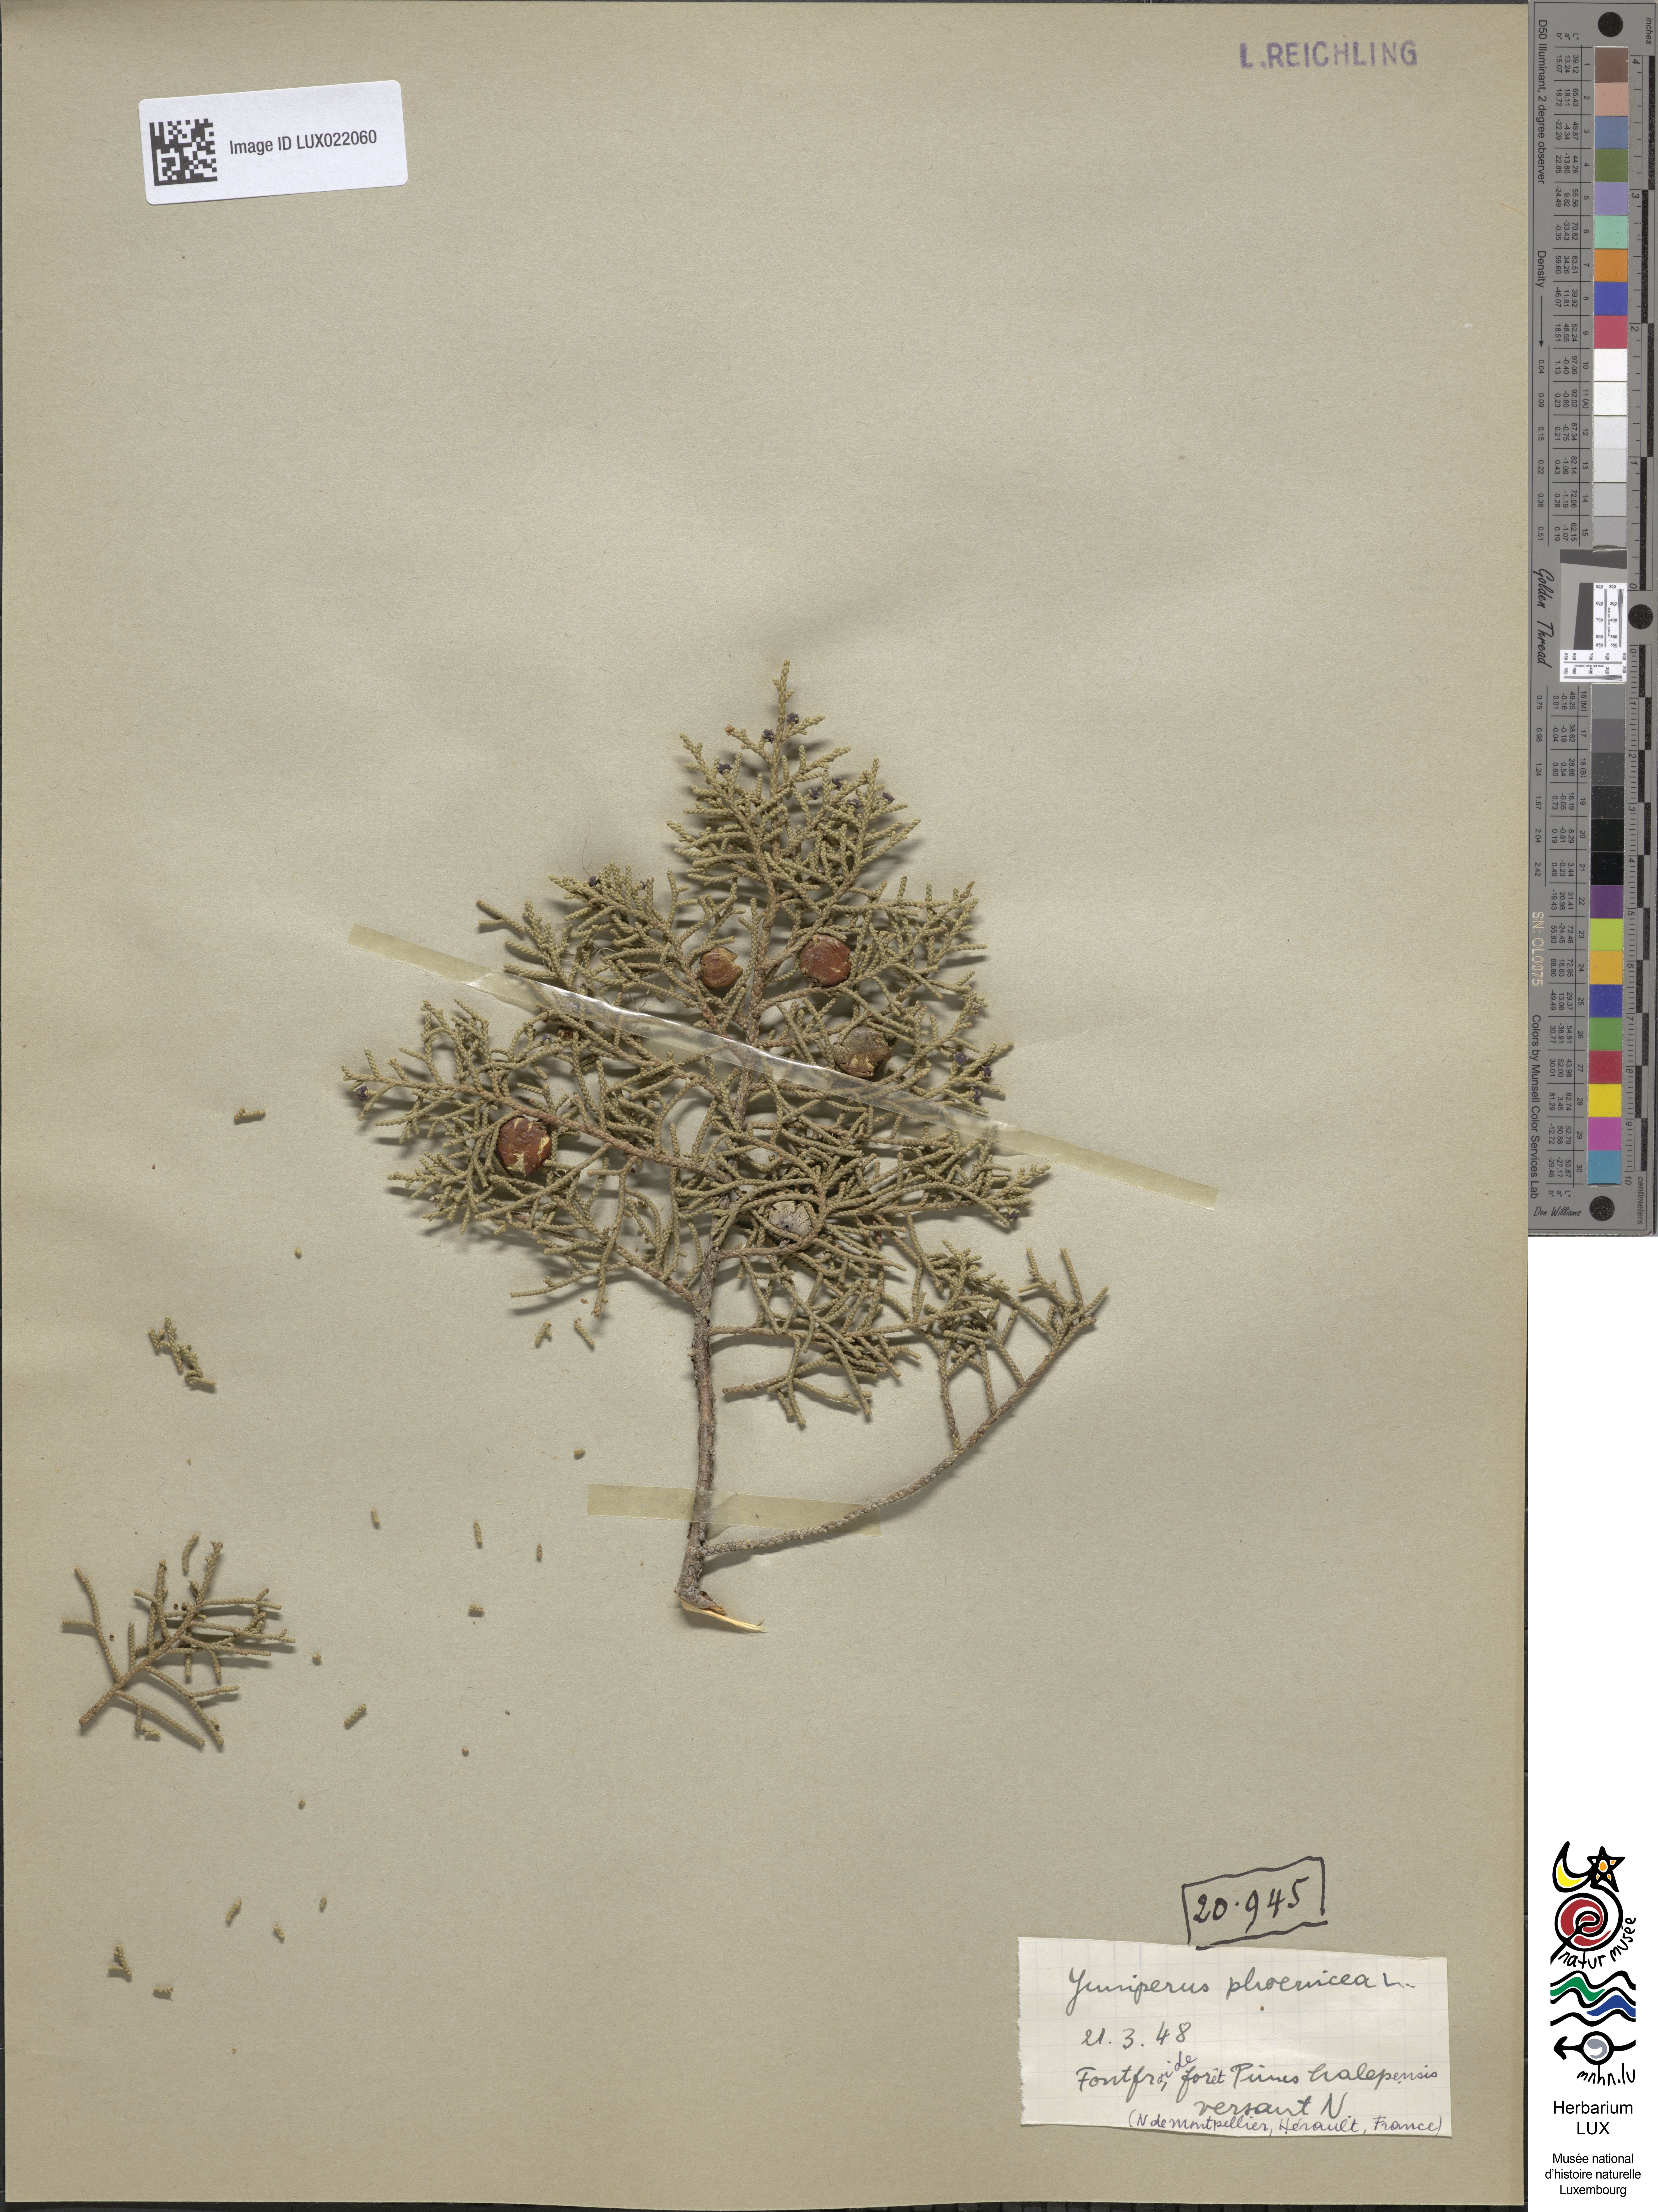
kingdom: Plantae
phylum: Tracheophyta
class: Pinopsida
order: Pinales
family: Cupressaceae
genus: Juniperus
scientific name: Juniperus phoenicea
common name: Phoenician juniper
